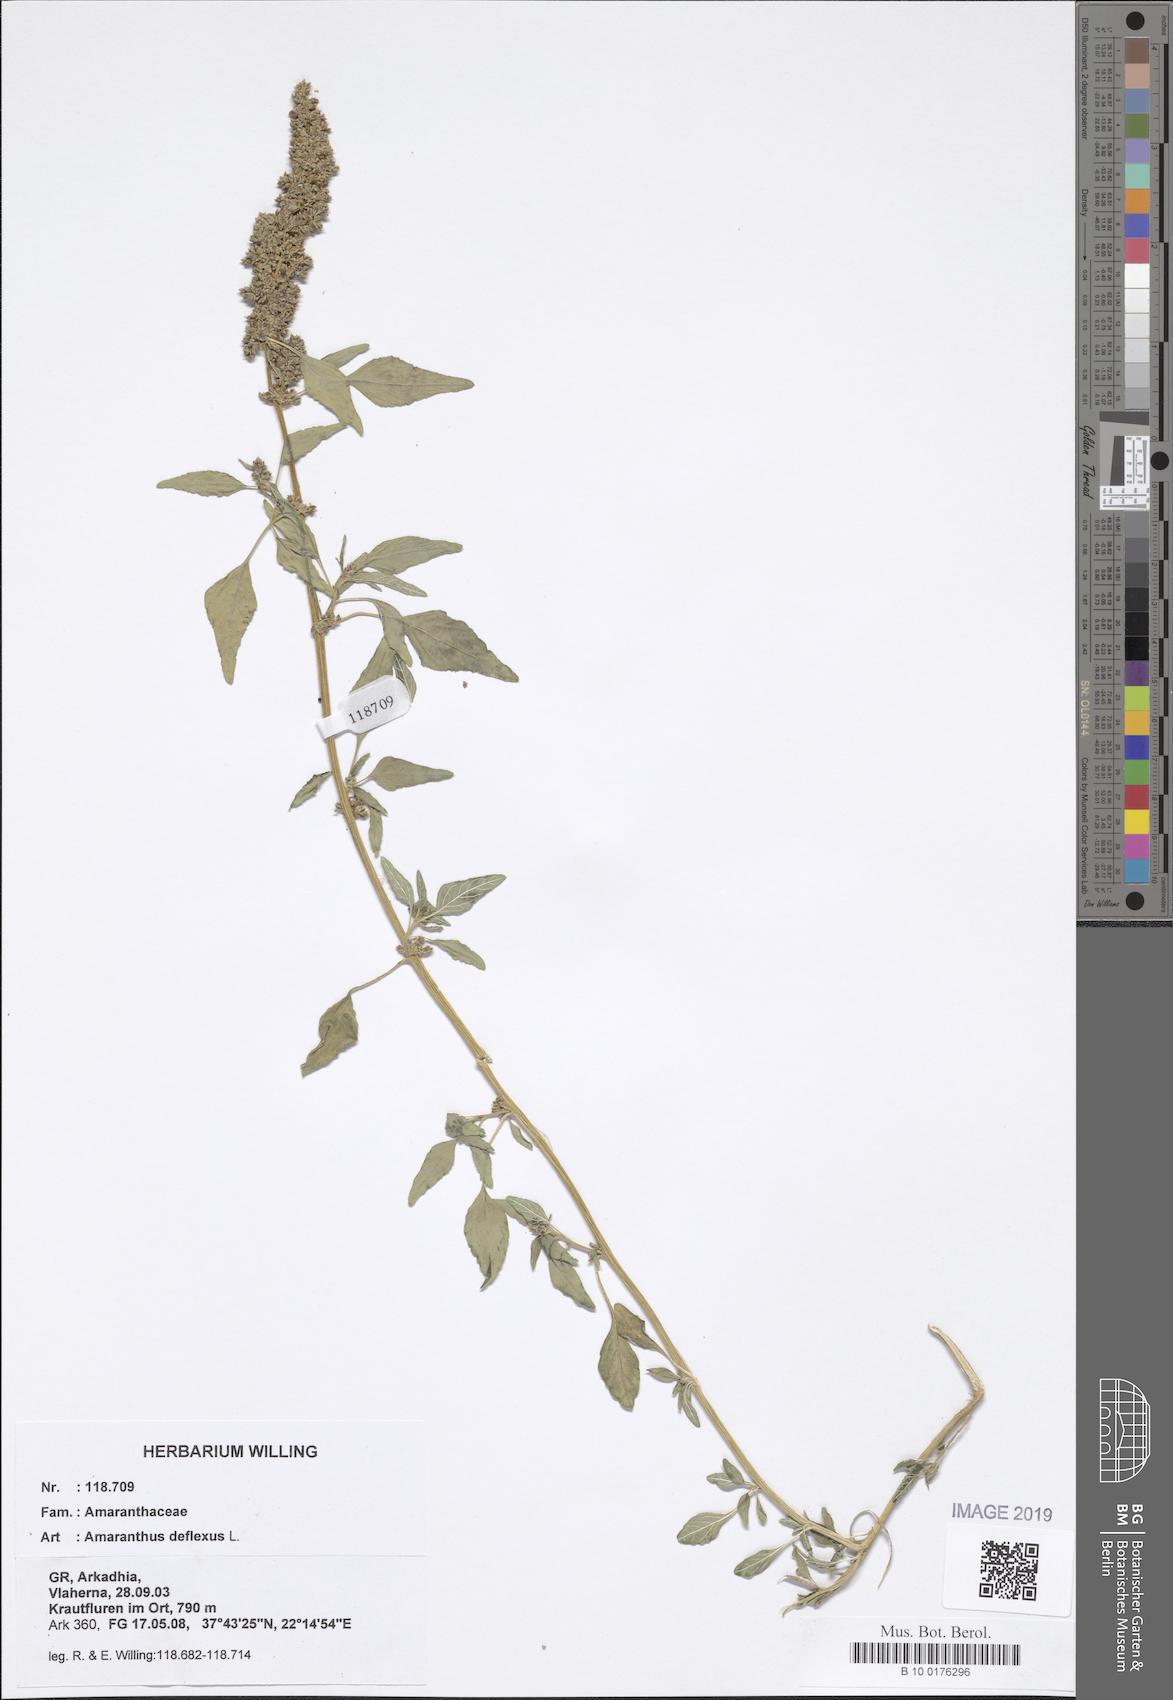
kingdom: Plantae
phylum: Tracheophyta
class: Magnoliopsida
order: Caryophyllales
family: Amaranthaceae
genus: Amaranthus
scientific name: Amaranthus deflexus
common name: Perennial pigweed
